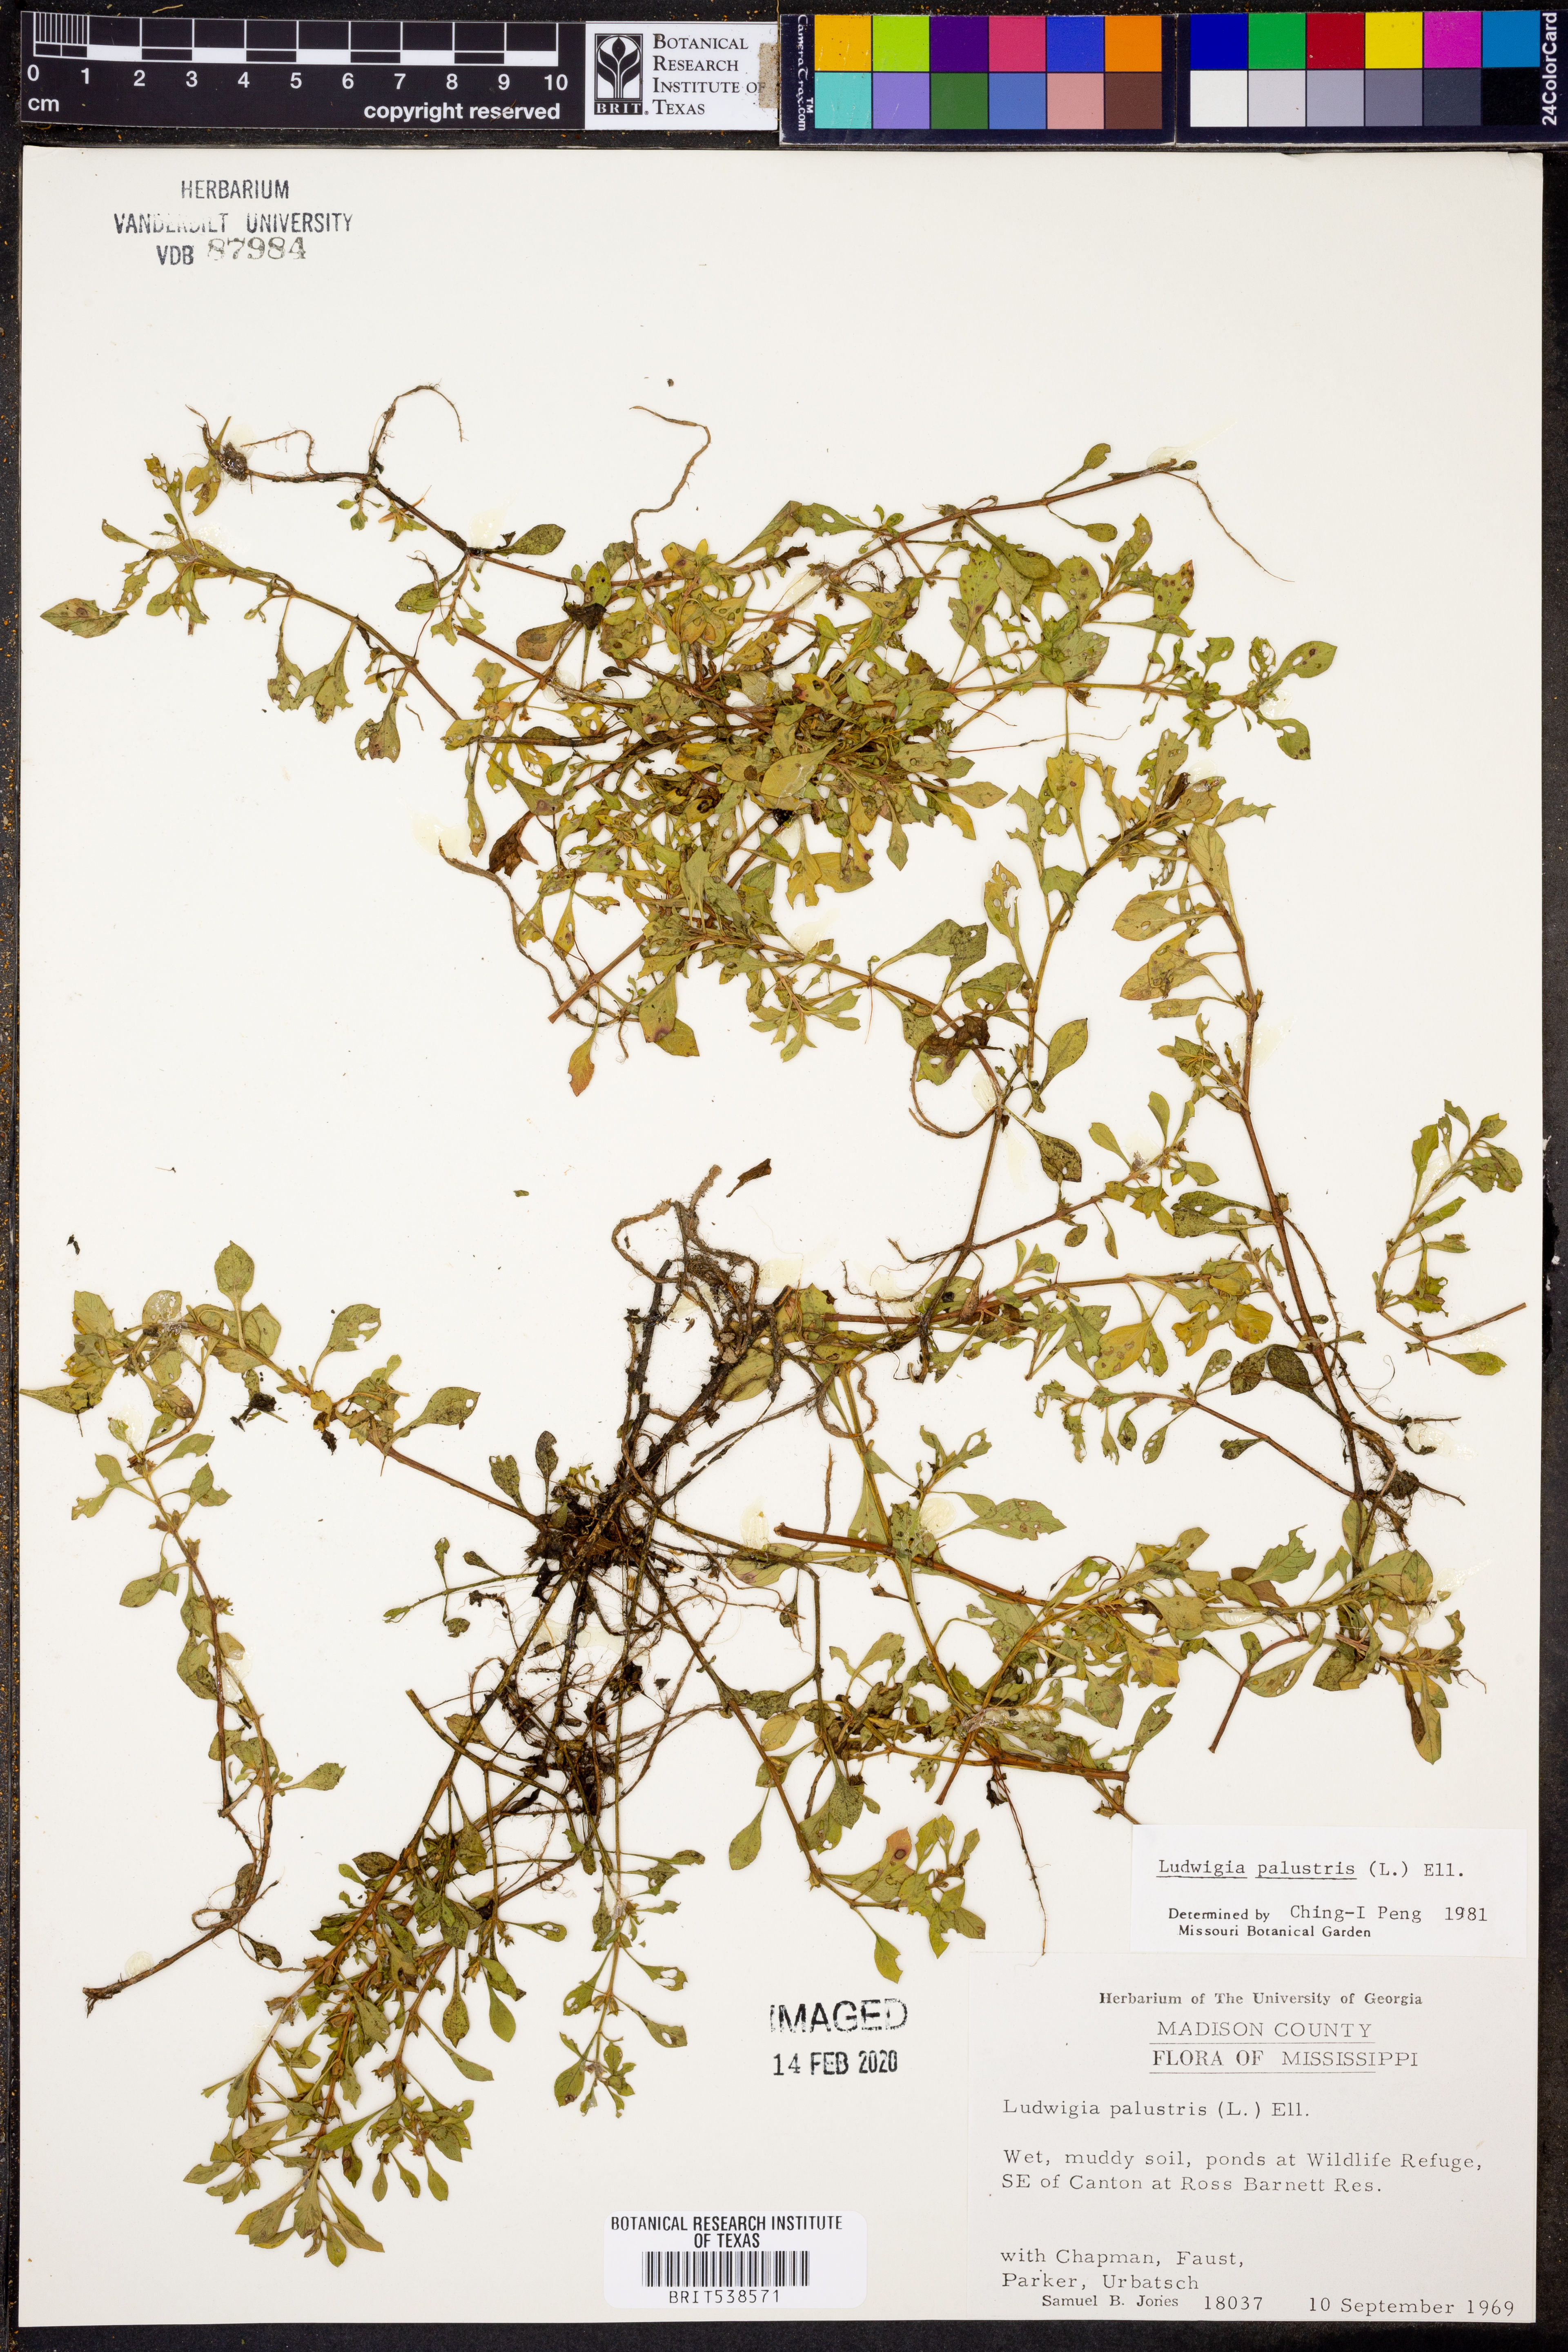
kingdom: Plantae
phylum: Tracheophyta
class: Magnoliopsida
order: Myrtales
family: Onagraceae
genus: Ludwigia
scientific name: Ludwigia palustris
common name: Hampshire-purslane
